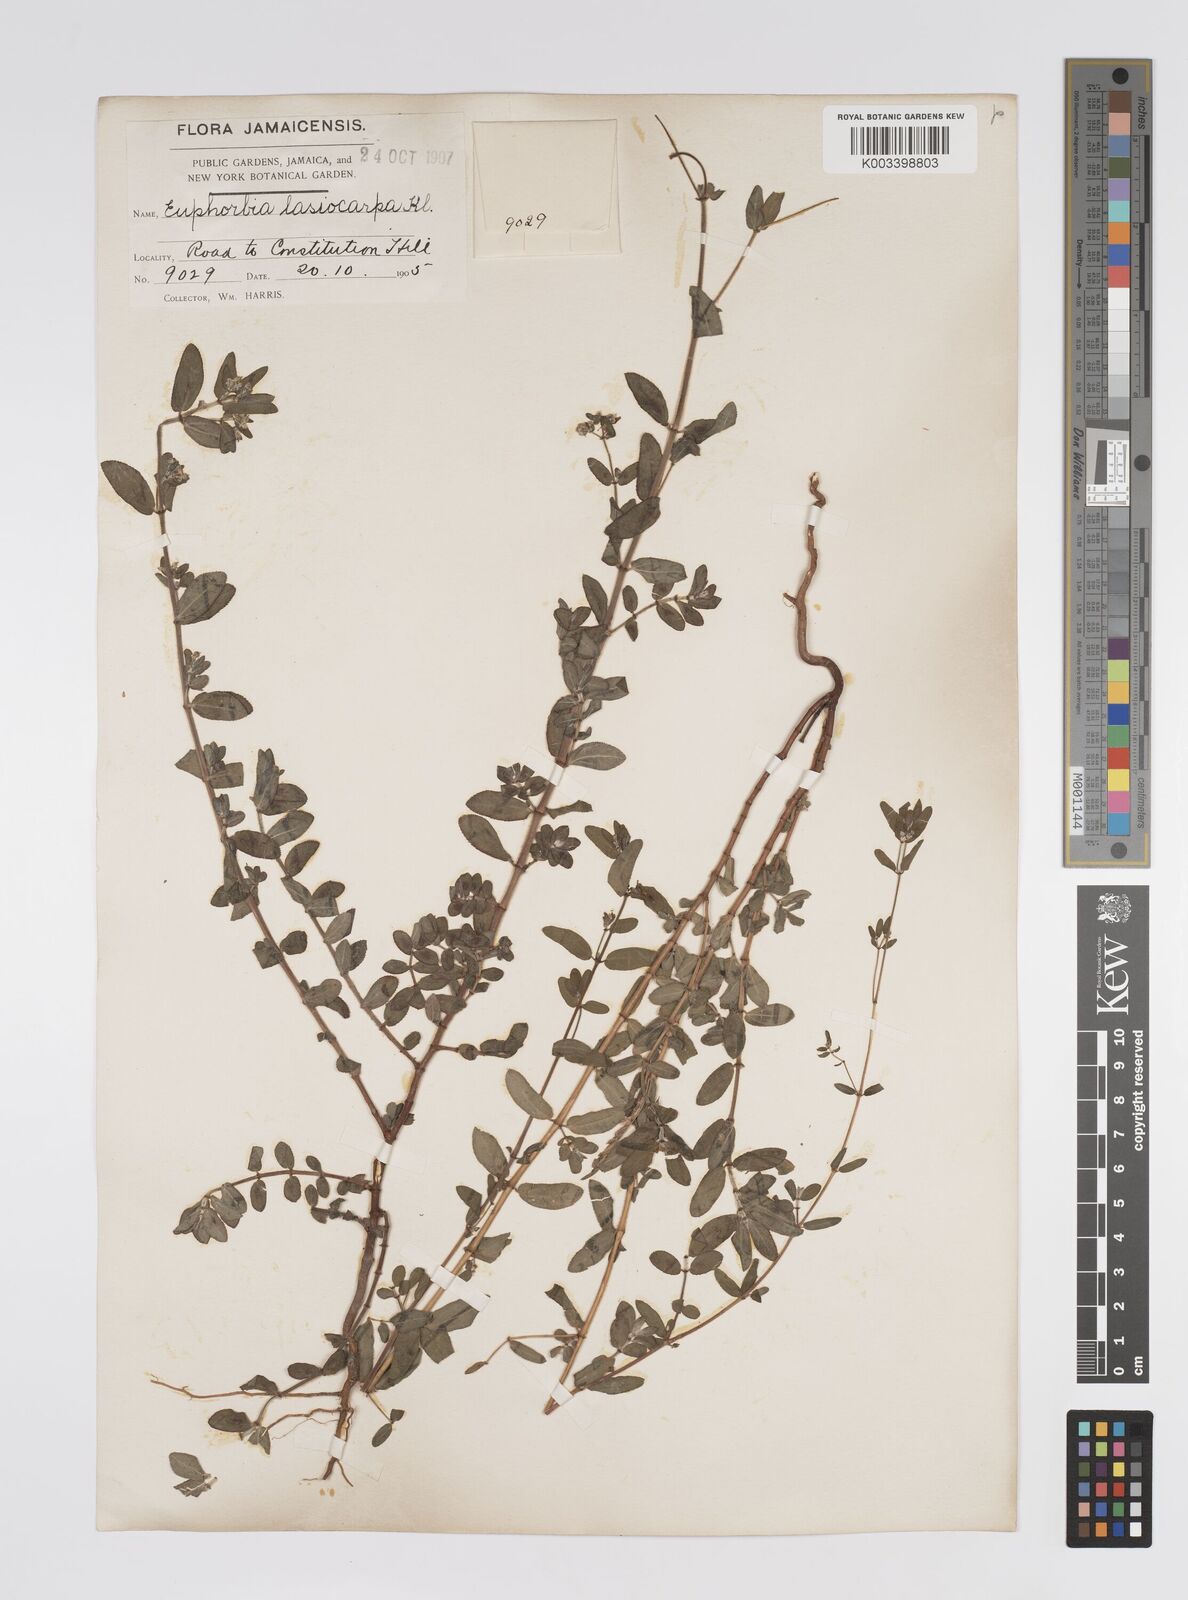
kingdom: Plantae
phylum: Tracheophyta
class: Magnoliopsida
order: Malpighiales
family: Euphorbiaceae
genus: Euphorbia
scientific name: Euphorbia lasiocarpa
